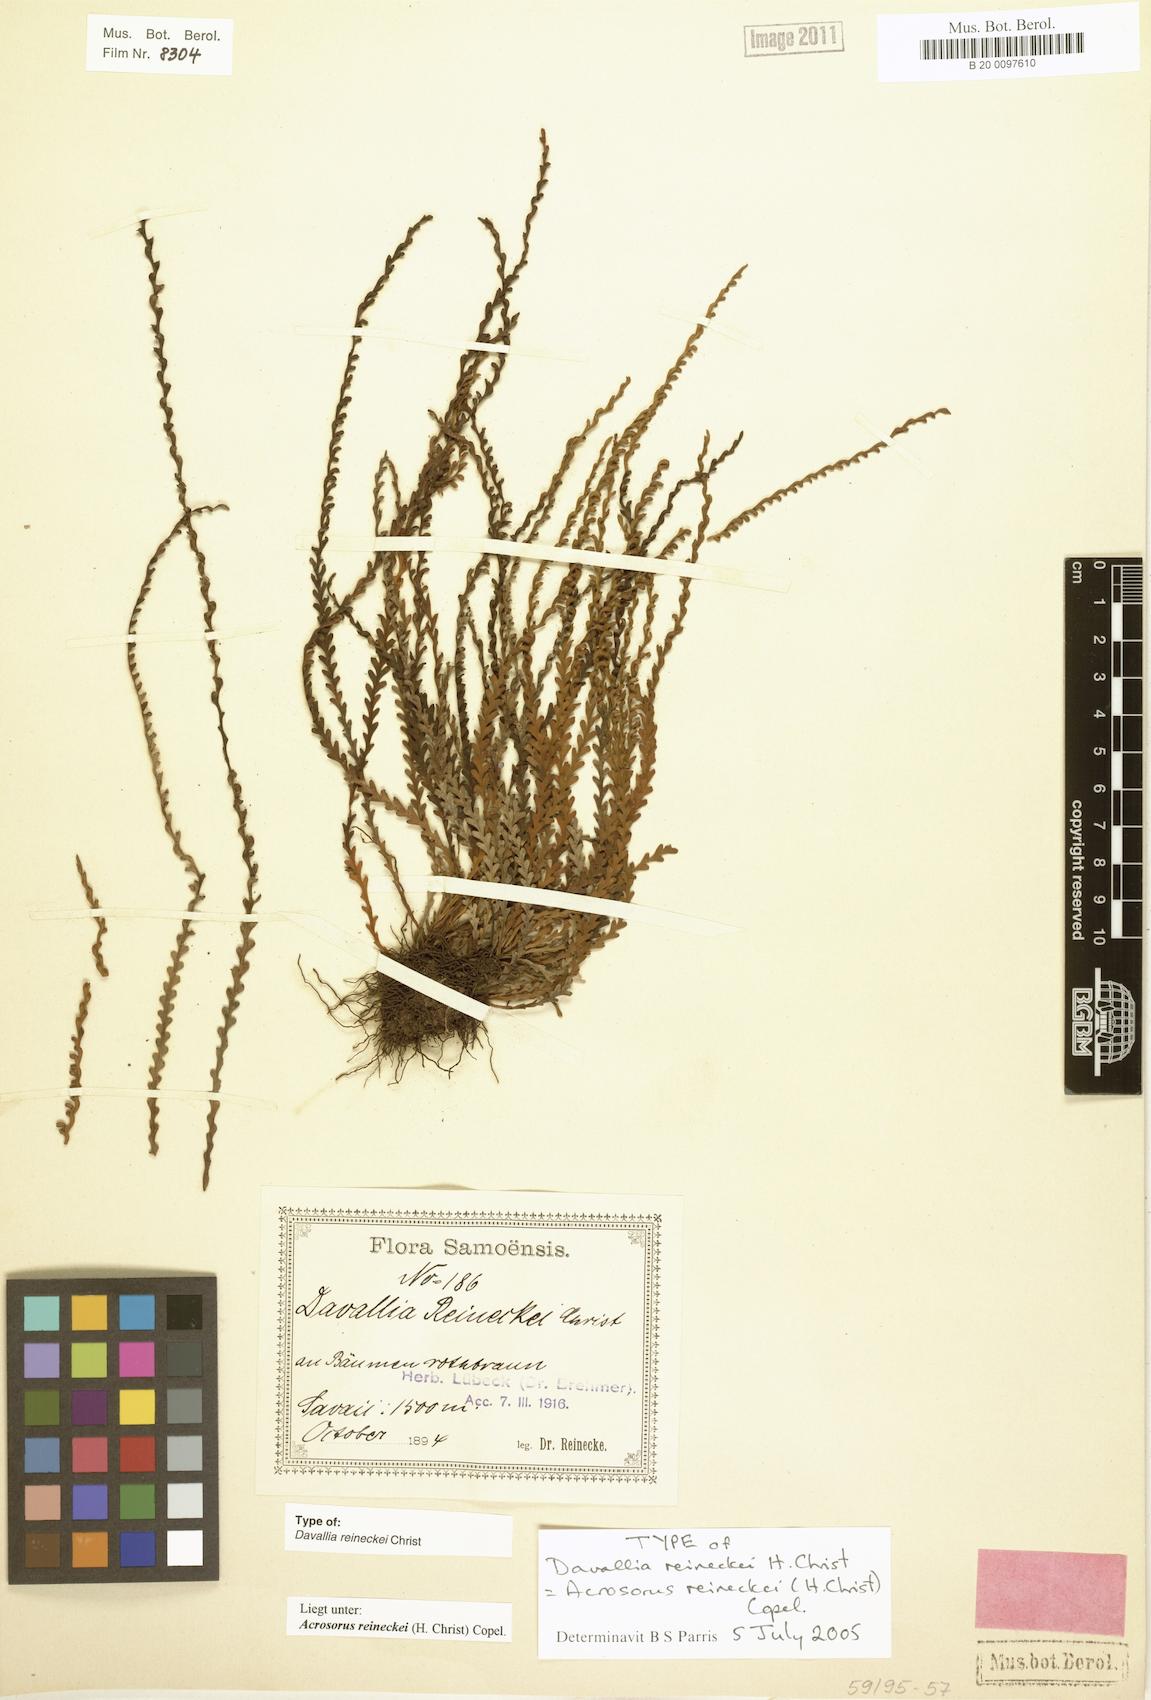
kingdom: Plantae
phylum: Tracheophyta
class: Polypodiopsida
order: Polypodiales
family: Polypodiaceae
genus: Acrosorus
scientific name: Acrosorus reineckei
